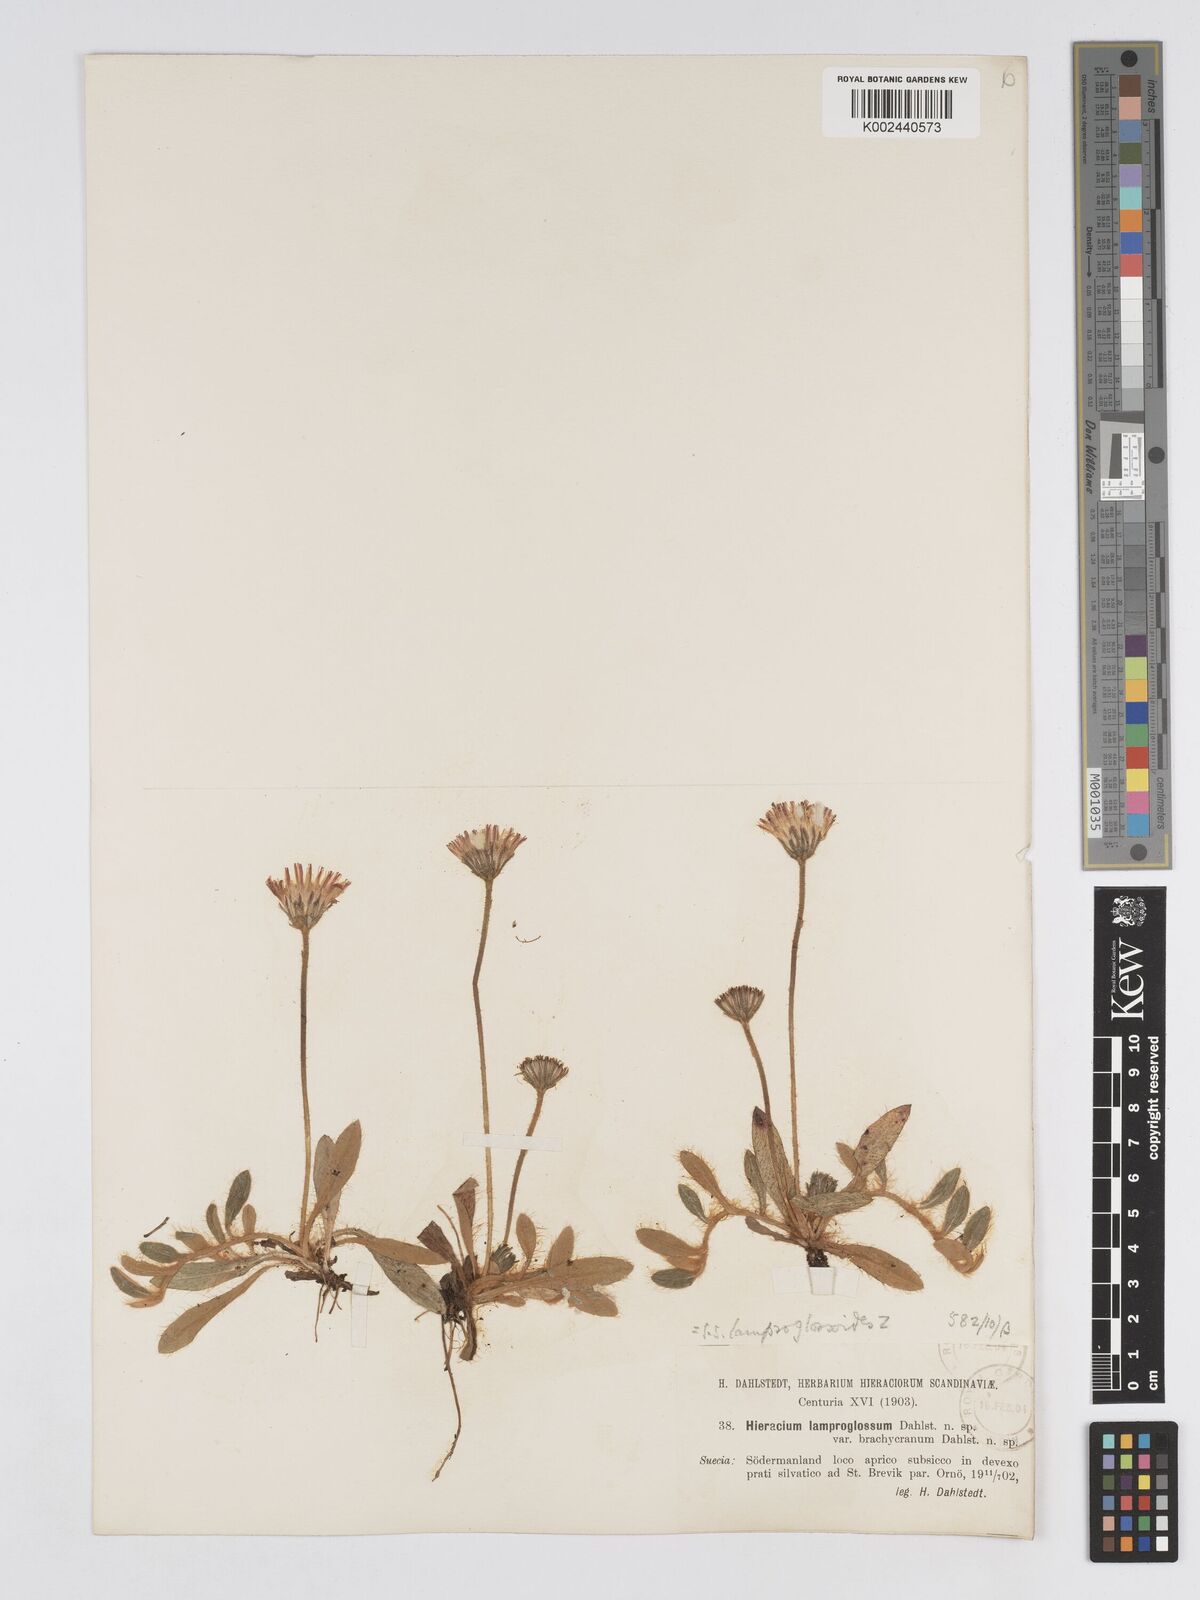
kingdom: Plantae
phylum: Tracheophyta
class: Magnoliopsida
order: Asterales
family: Asteraceae
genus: Pilosella
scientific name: Pilosella longisquama
